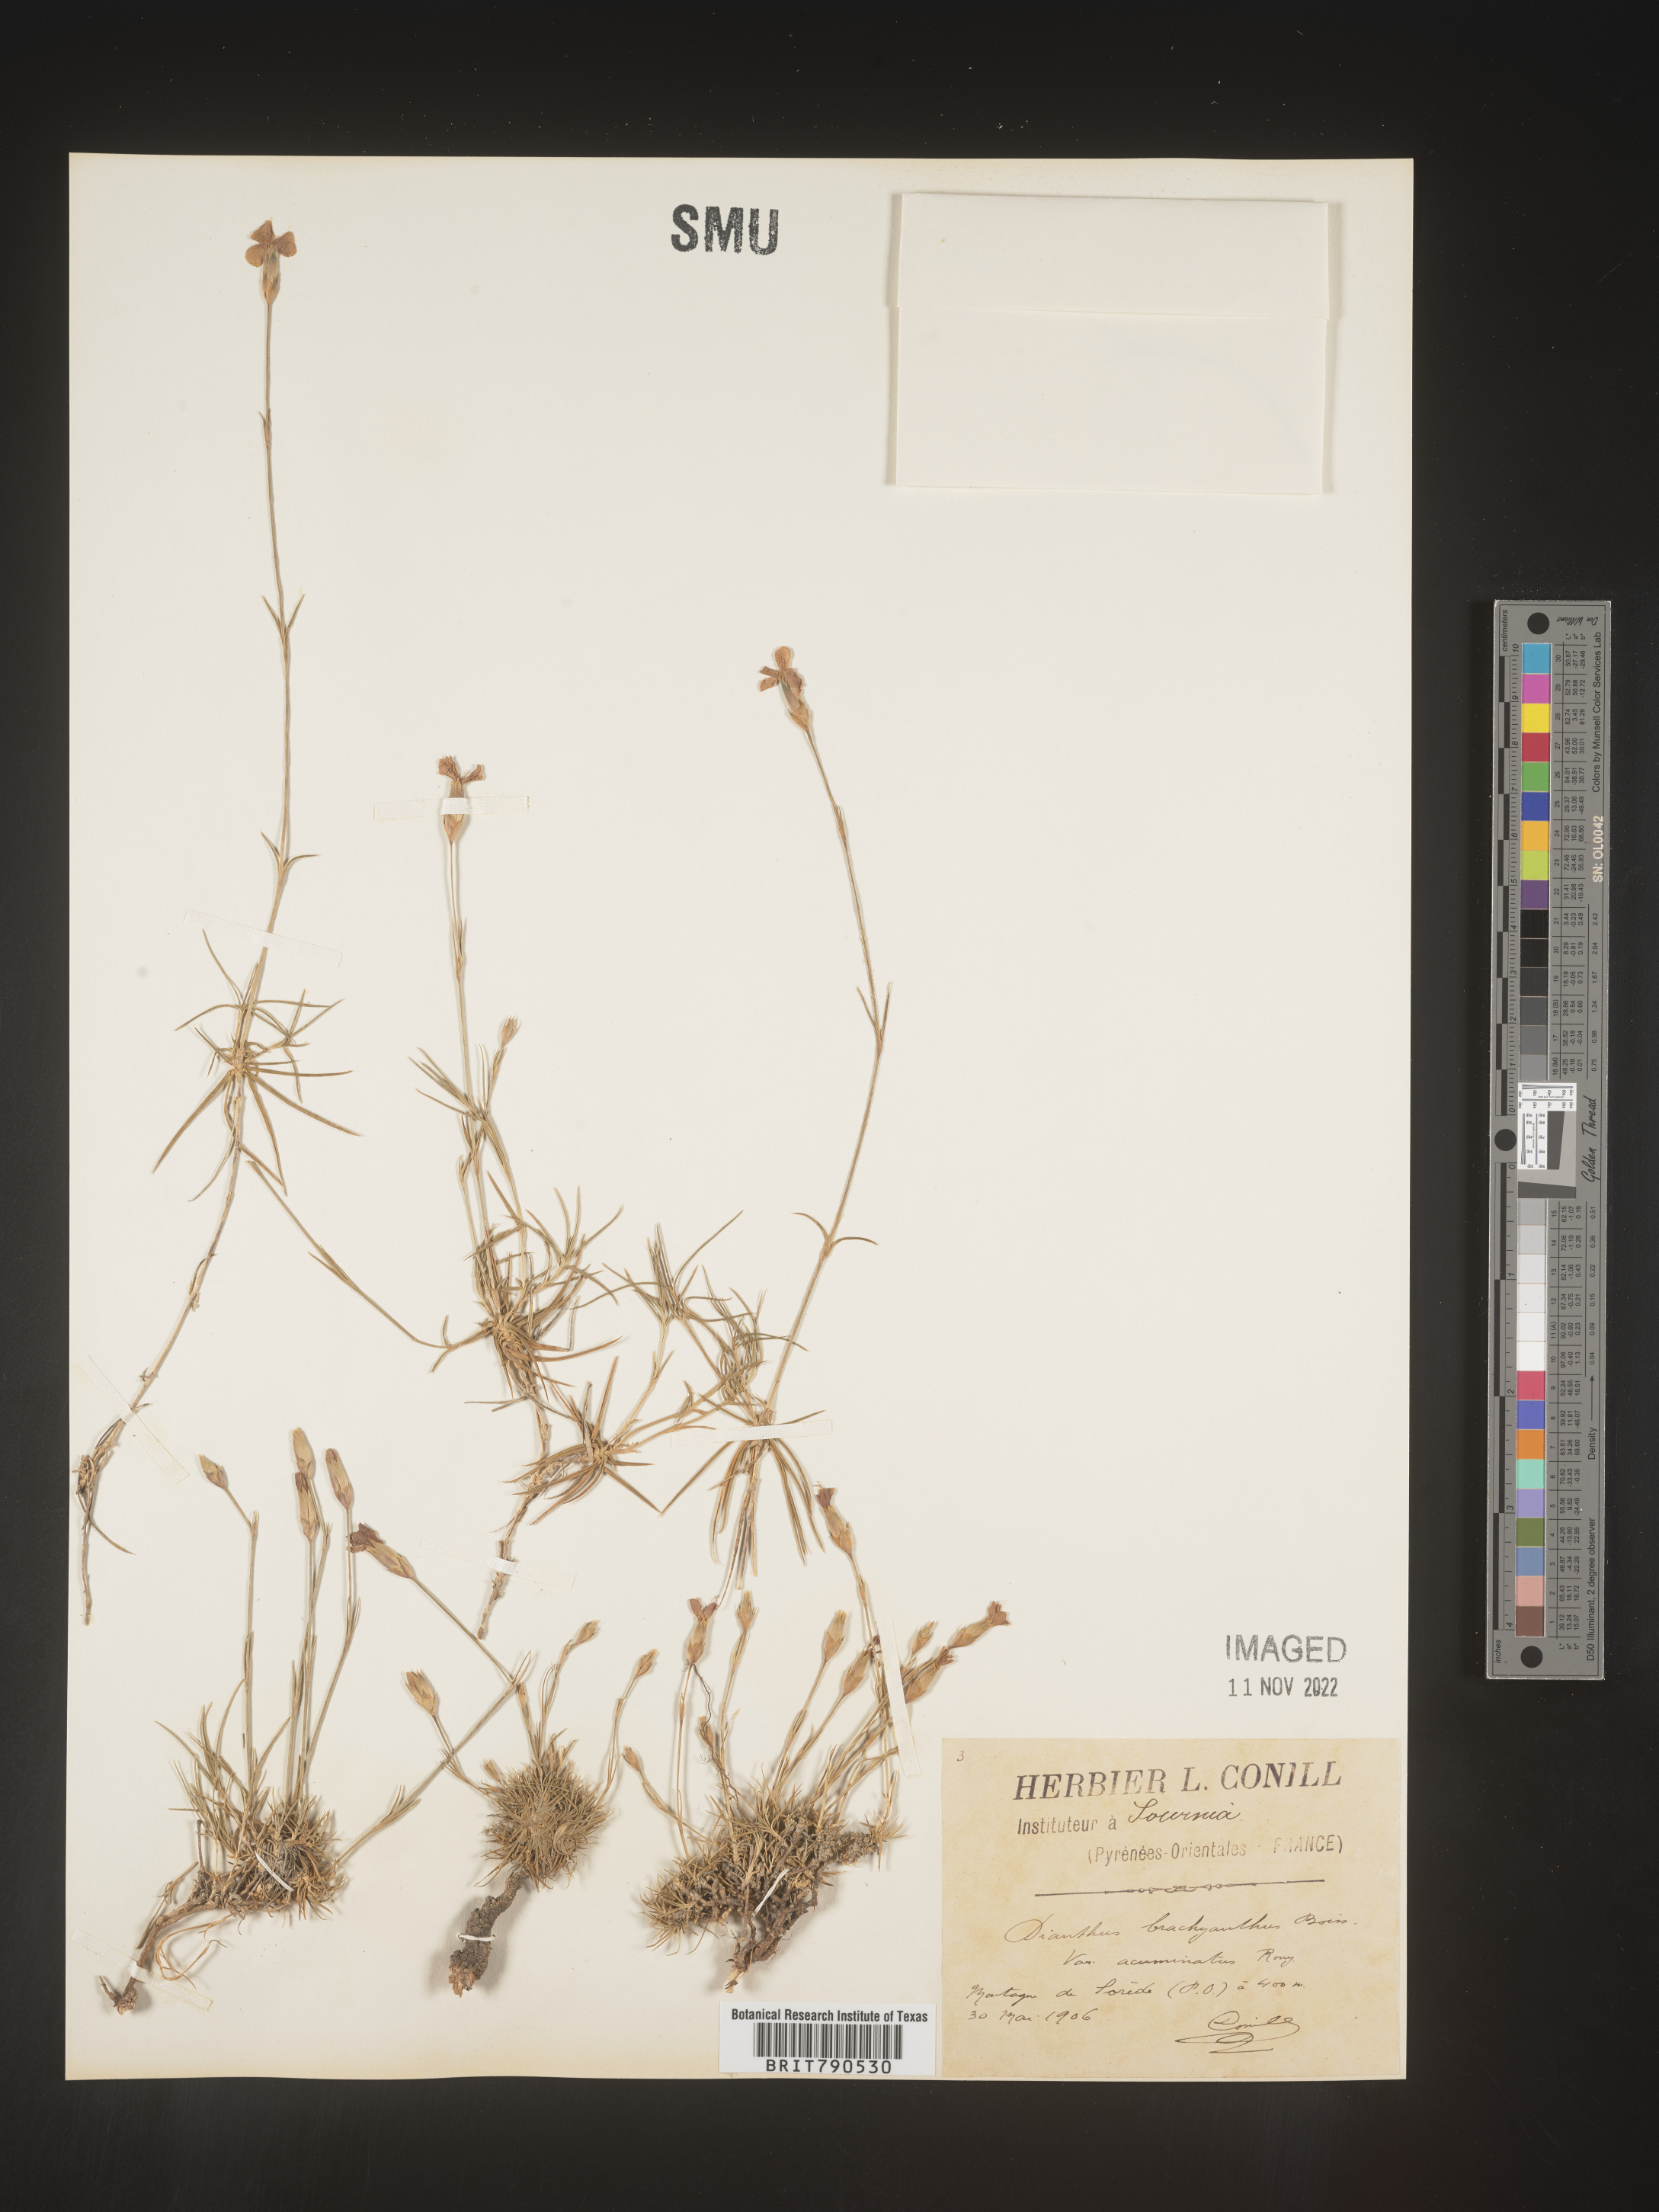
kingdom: Plantae
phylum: Tracheophyta
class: Magnoliopsida
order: Caryophyllales
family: Caryophyllaceae
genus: Dianthus
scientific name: Dianthus
